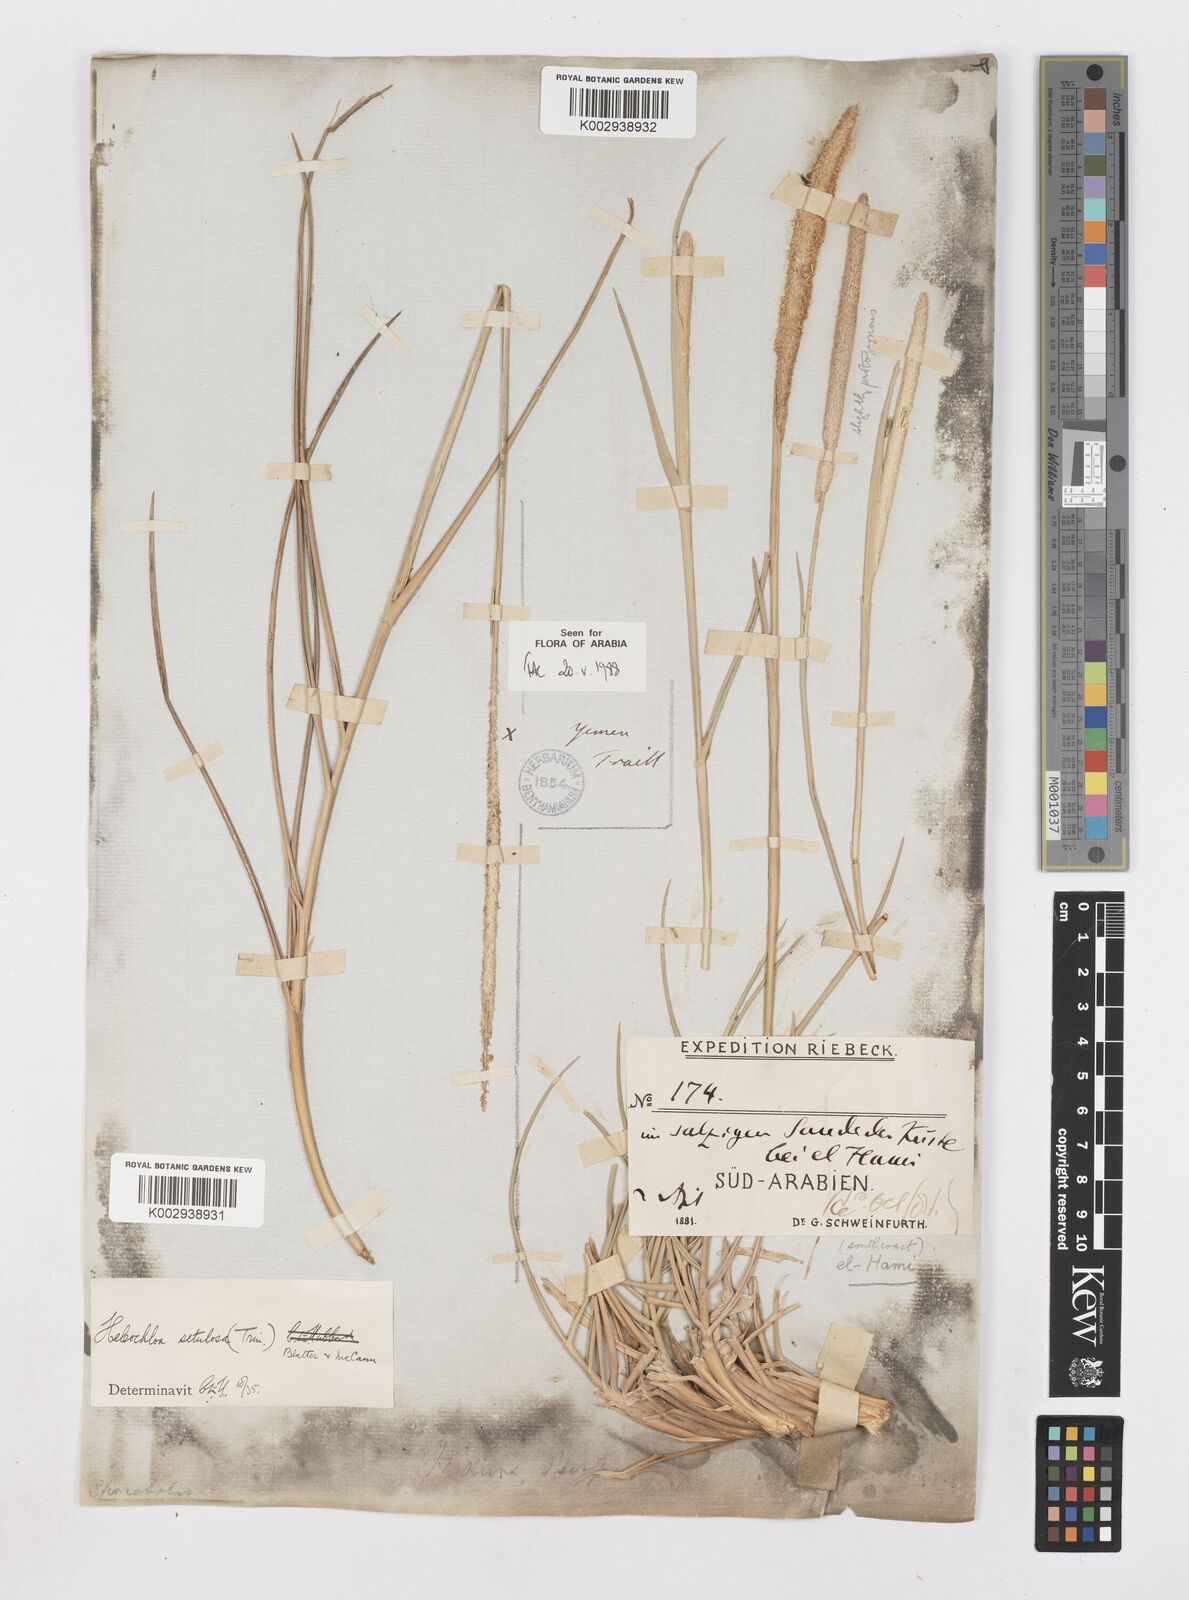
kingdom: Plantae
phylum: Tracheophyta
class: Liliopsida
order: Poales
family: Poaceae
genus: Urochondra
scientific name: Urochondra setulosa
